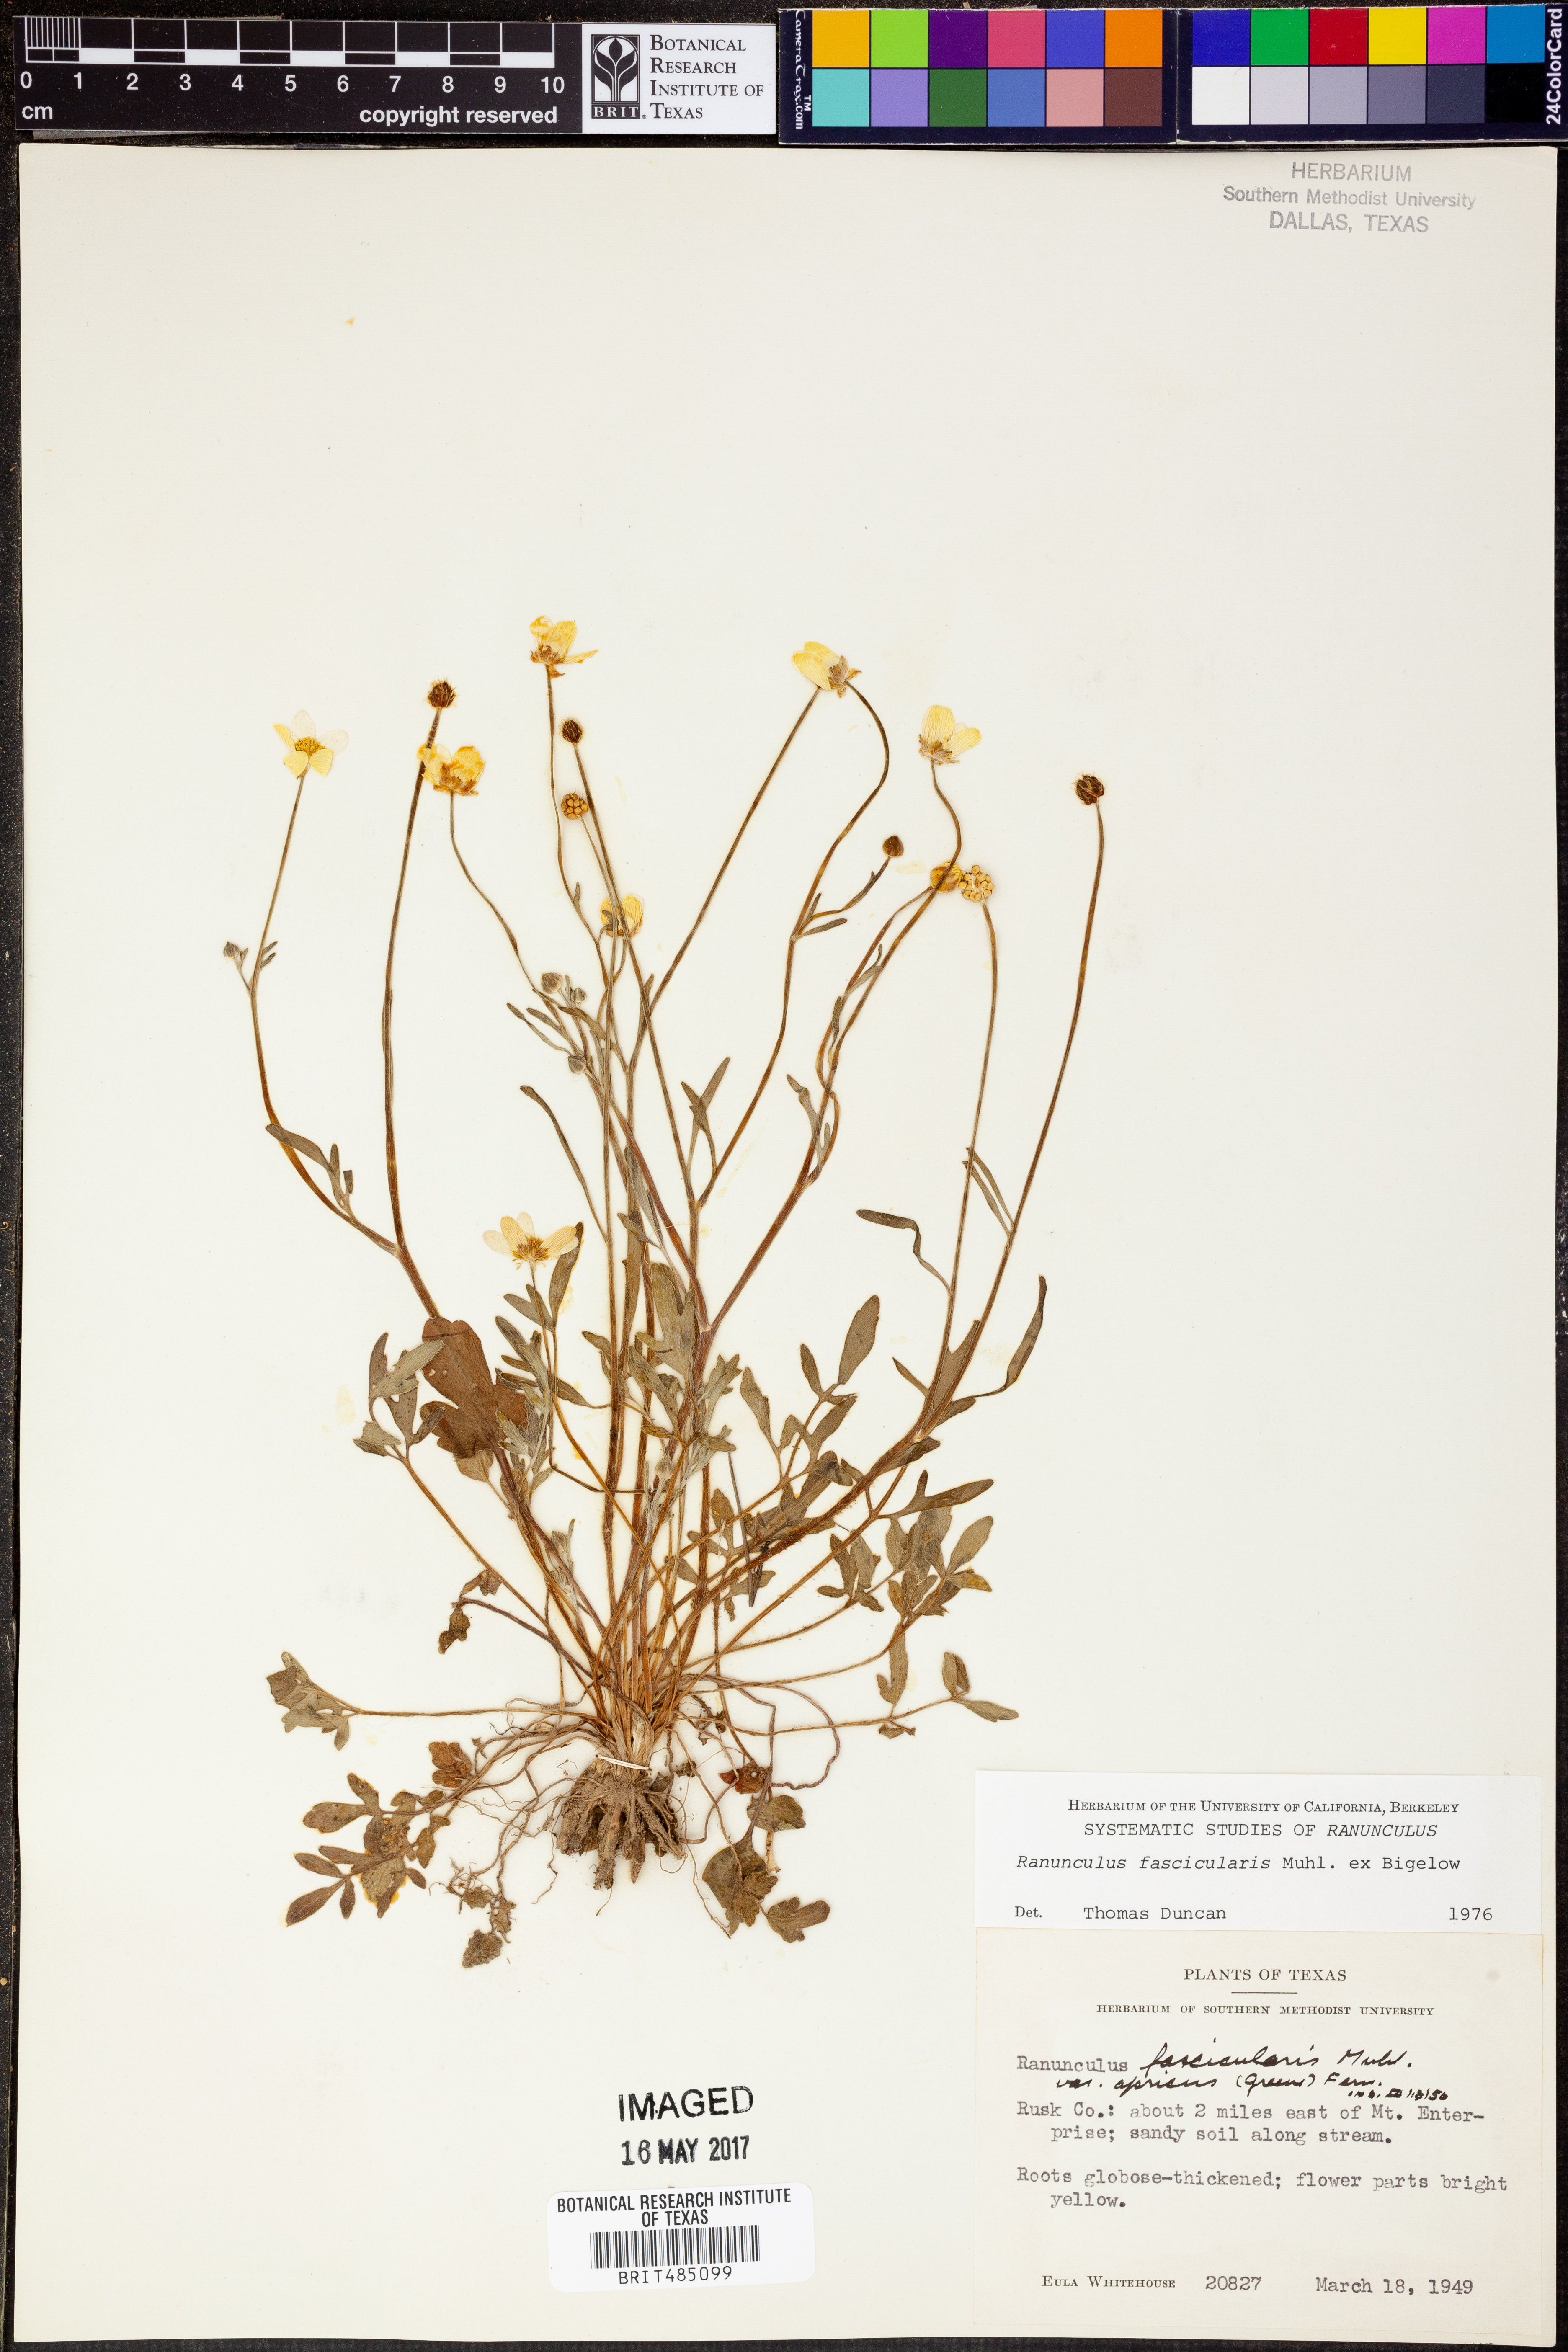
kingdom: Plantae
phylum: Tracheophyta
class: Magnoliopsida
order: Ranunculales
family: Ranunculaceae
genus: Ranunculus
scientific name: Ranunculus fascicularis
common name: Early buttercup
